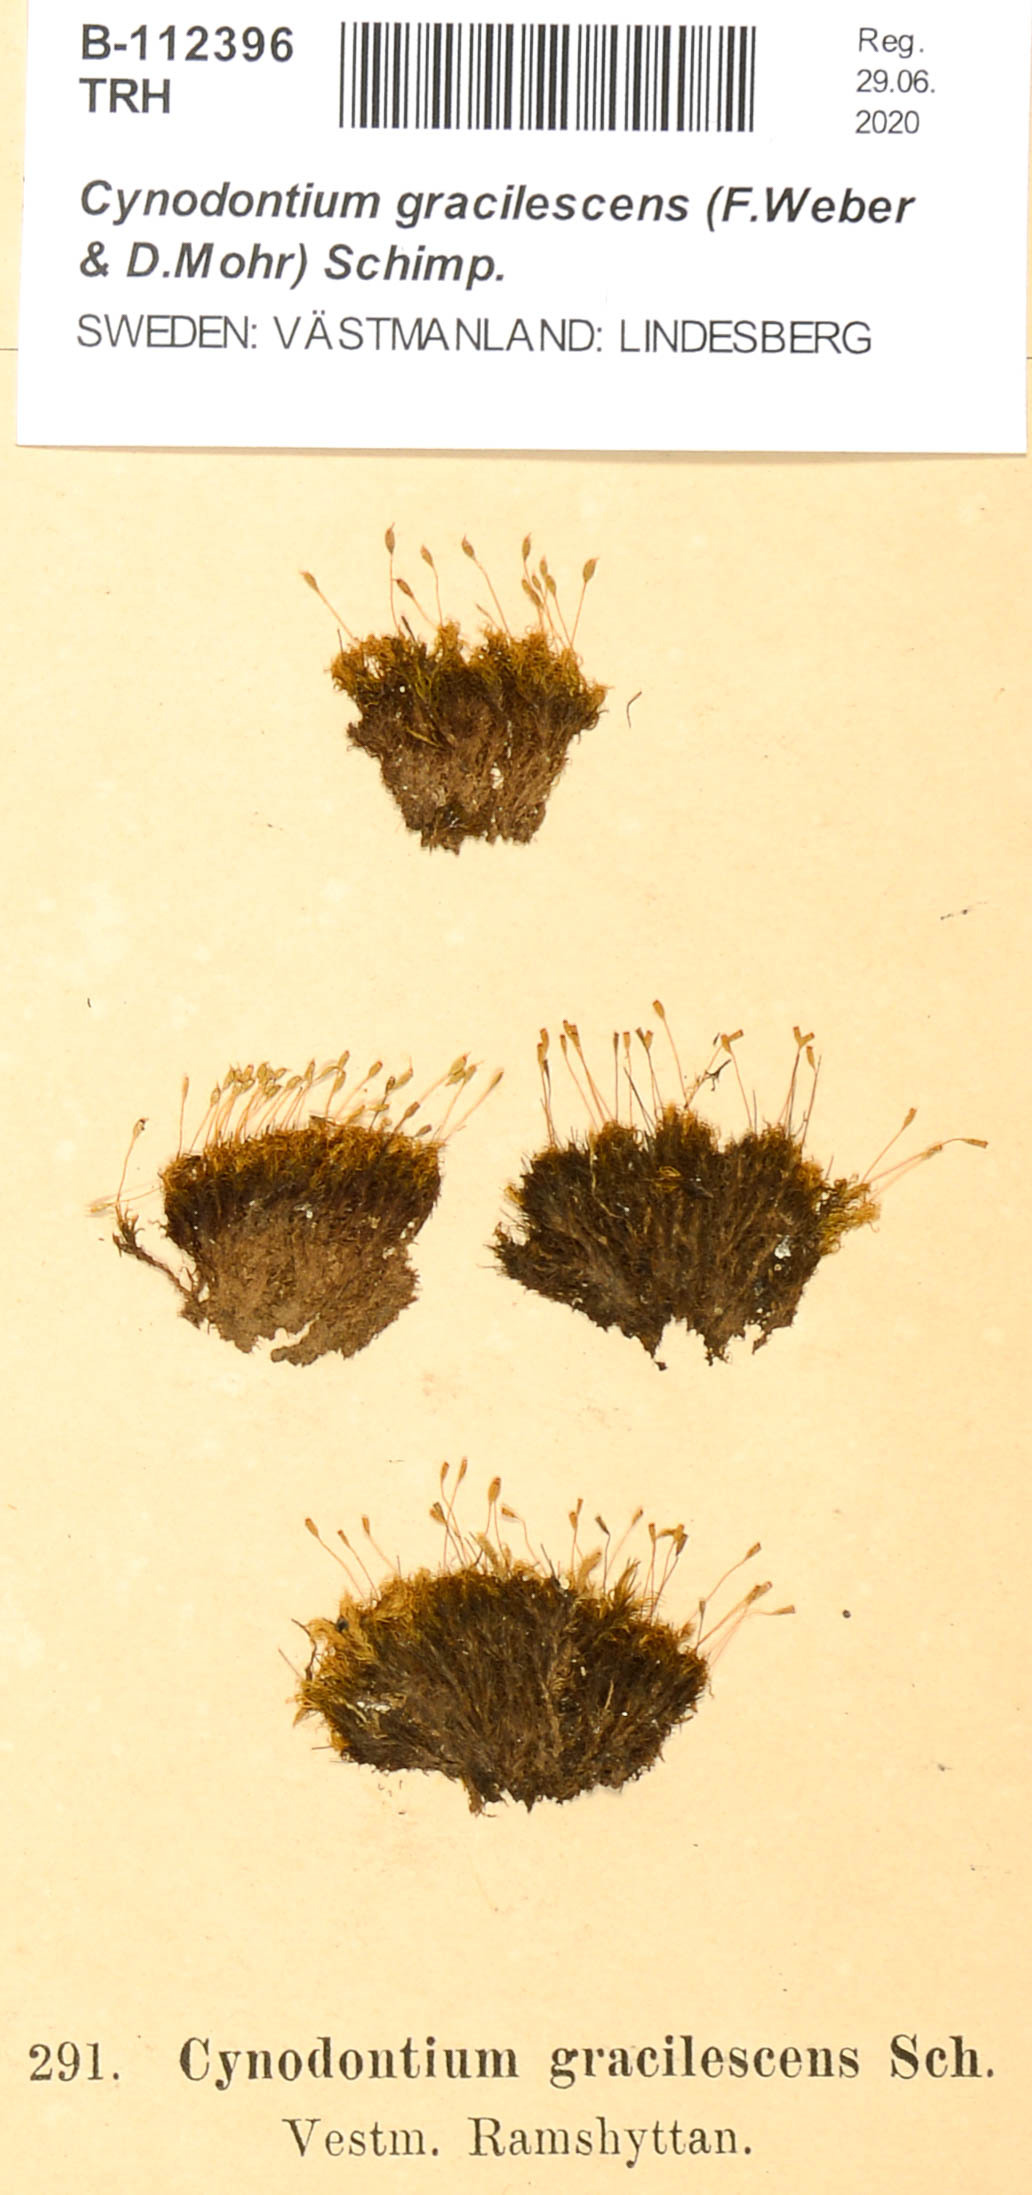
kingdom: Plantae
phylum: Bryophyta
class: Bryopsida
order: Dicranales
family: Rhabdoweisiaceae
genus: Cynodontium
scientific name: Cynodontium gracilescens
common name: Slender dogtooth moss
